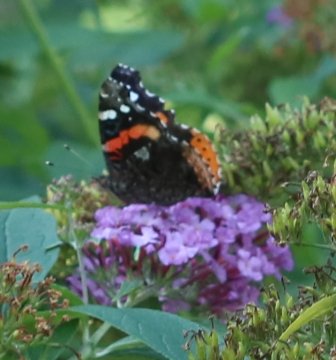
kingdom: Animalia
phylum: Arthropoda
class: Insecta
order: Lepidoptera
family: Nymphalidae
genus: Vanessa
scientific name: Vanessa atalanta
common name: Red Admiral
